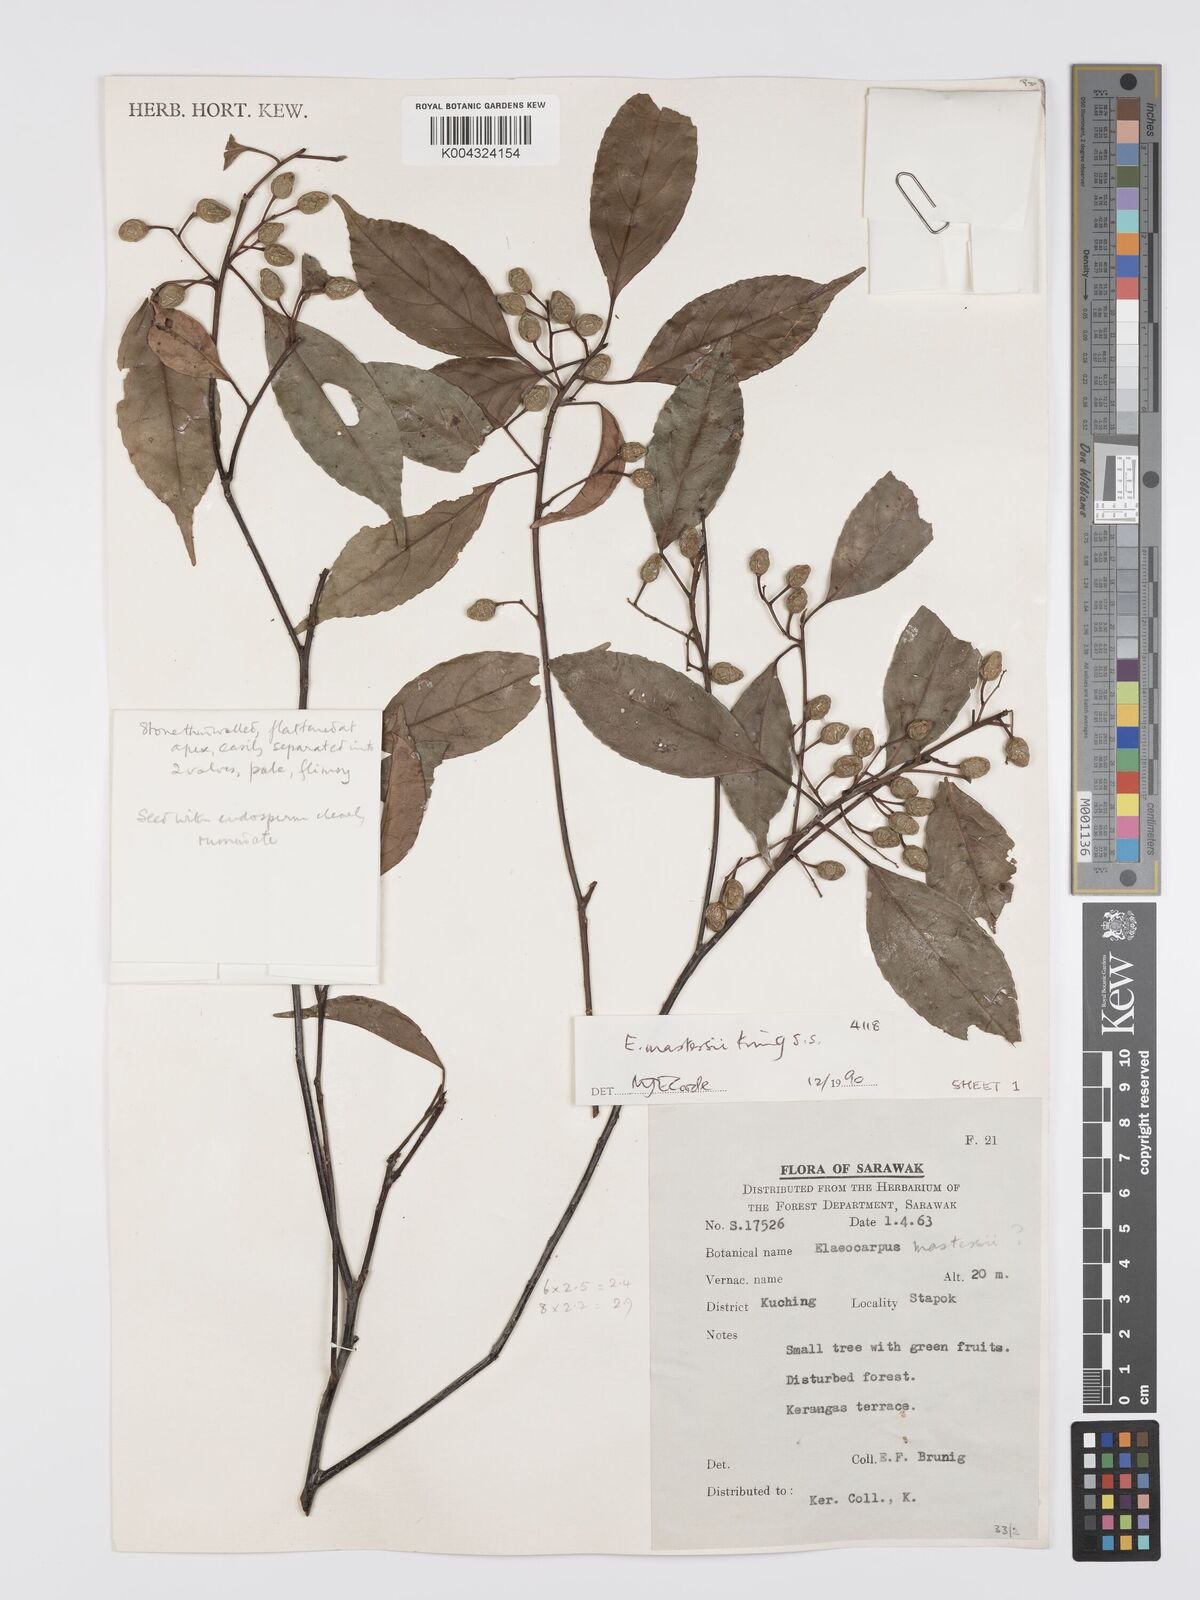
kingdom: Plantae
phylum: Tracheophyta
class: Magnoliopsida
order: Oxalidales
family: Elaeocarpaceae
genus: Elaeocarpus
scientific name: Elaeocarpus mastersii
